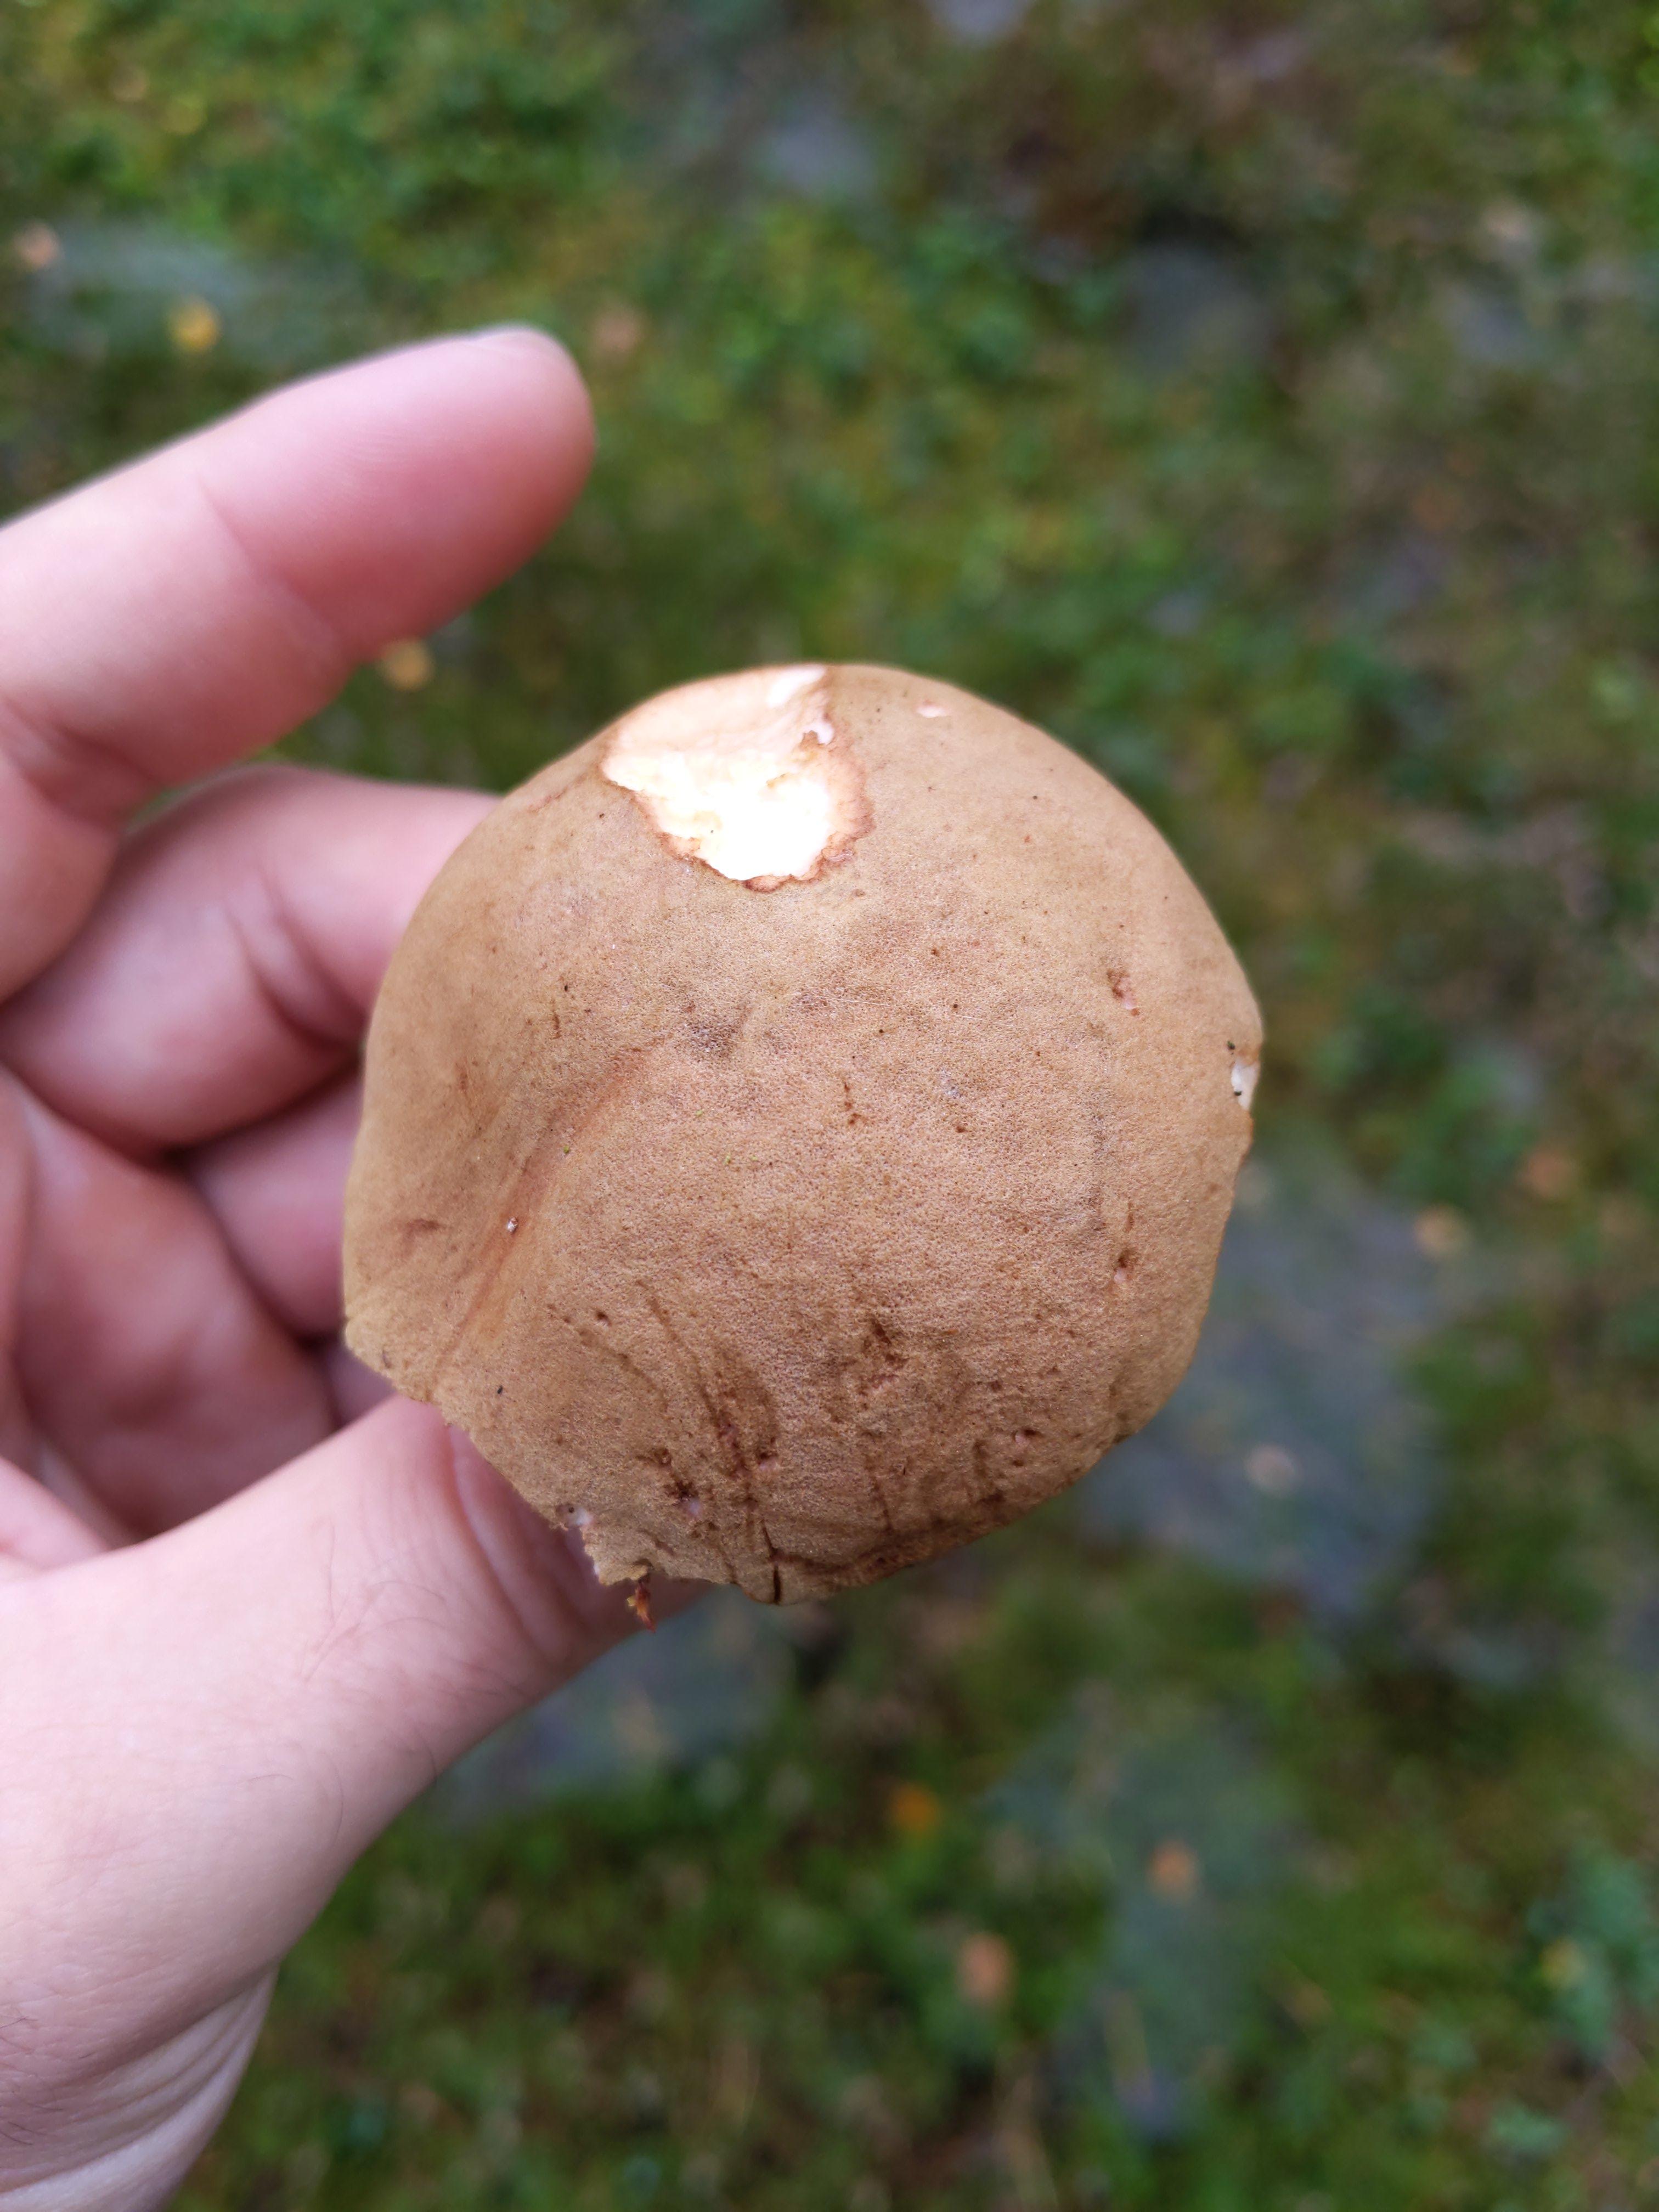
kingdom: Fungi
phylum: Basidiomycota
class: Agaricomycetes
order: Boletales
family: Boletaceae
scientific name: Boletaceae
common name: rørhatfamilien
